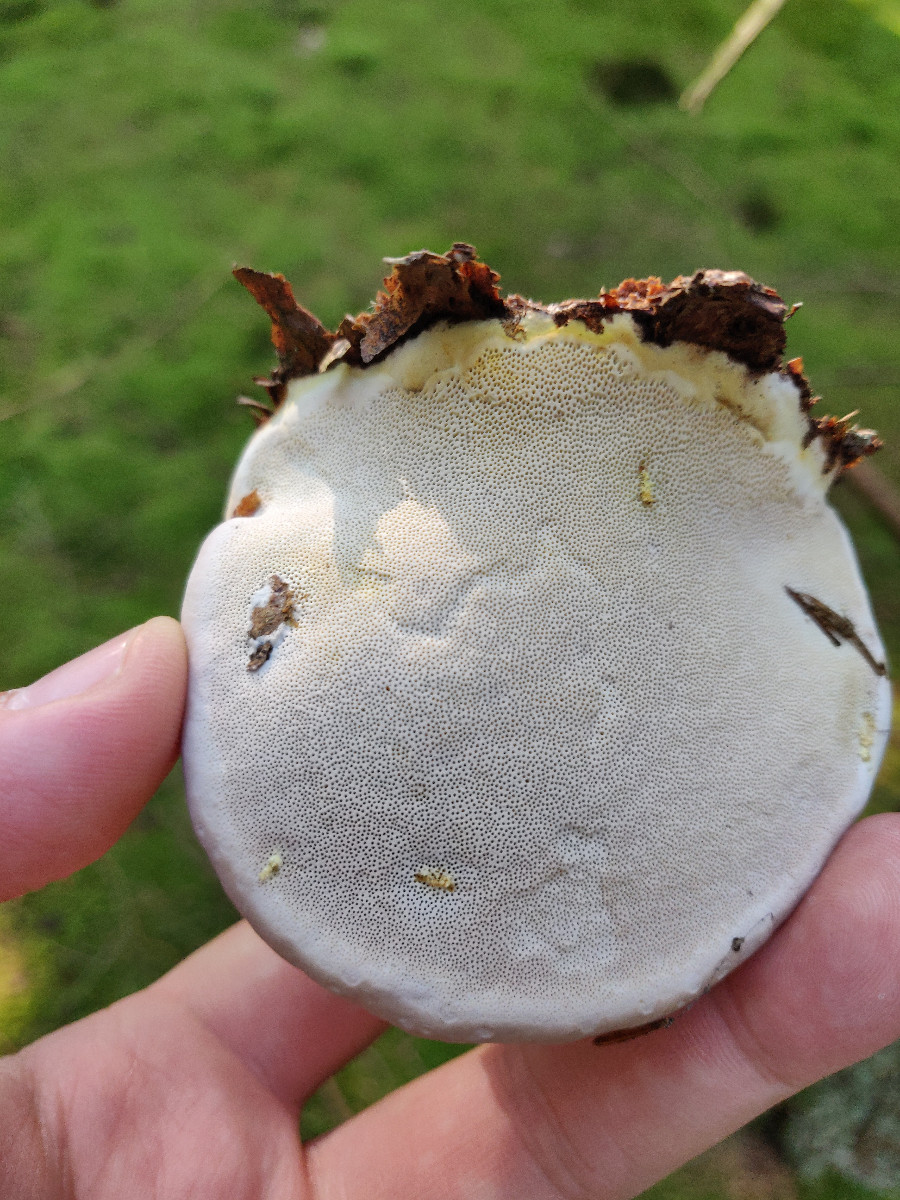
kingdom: Fungi
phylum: Basidiomycota
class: Agaricomycetes
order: Polyporales
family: Fomitopsidaceae
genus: Fomitopsis
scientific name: Fomitopsis pinicola
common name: randbæltet hovporesvamp
